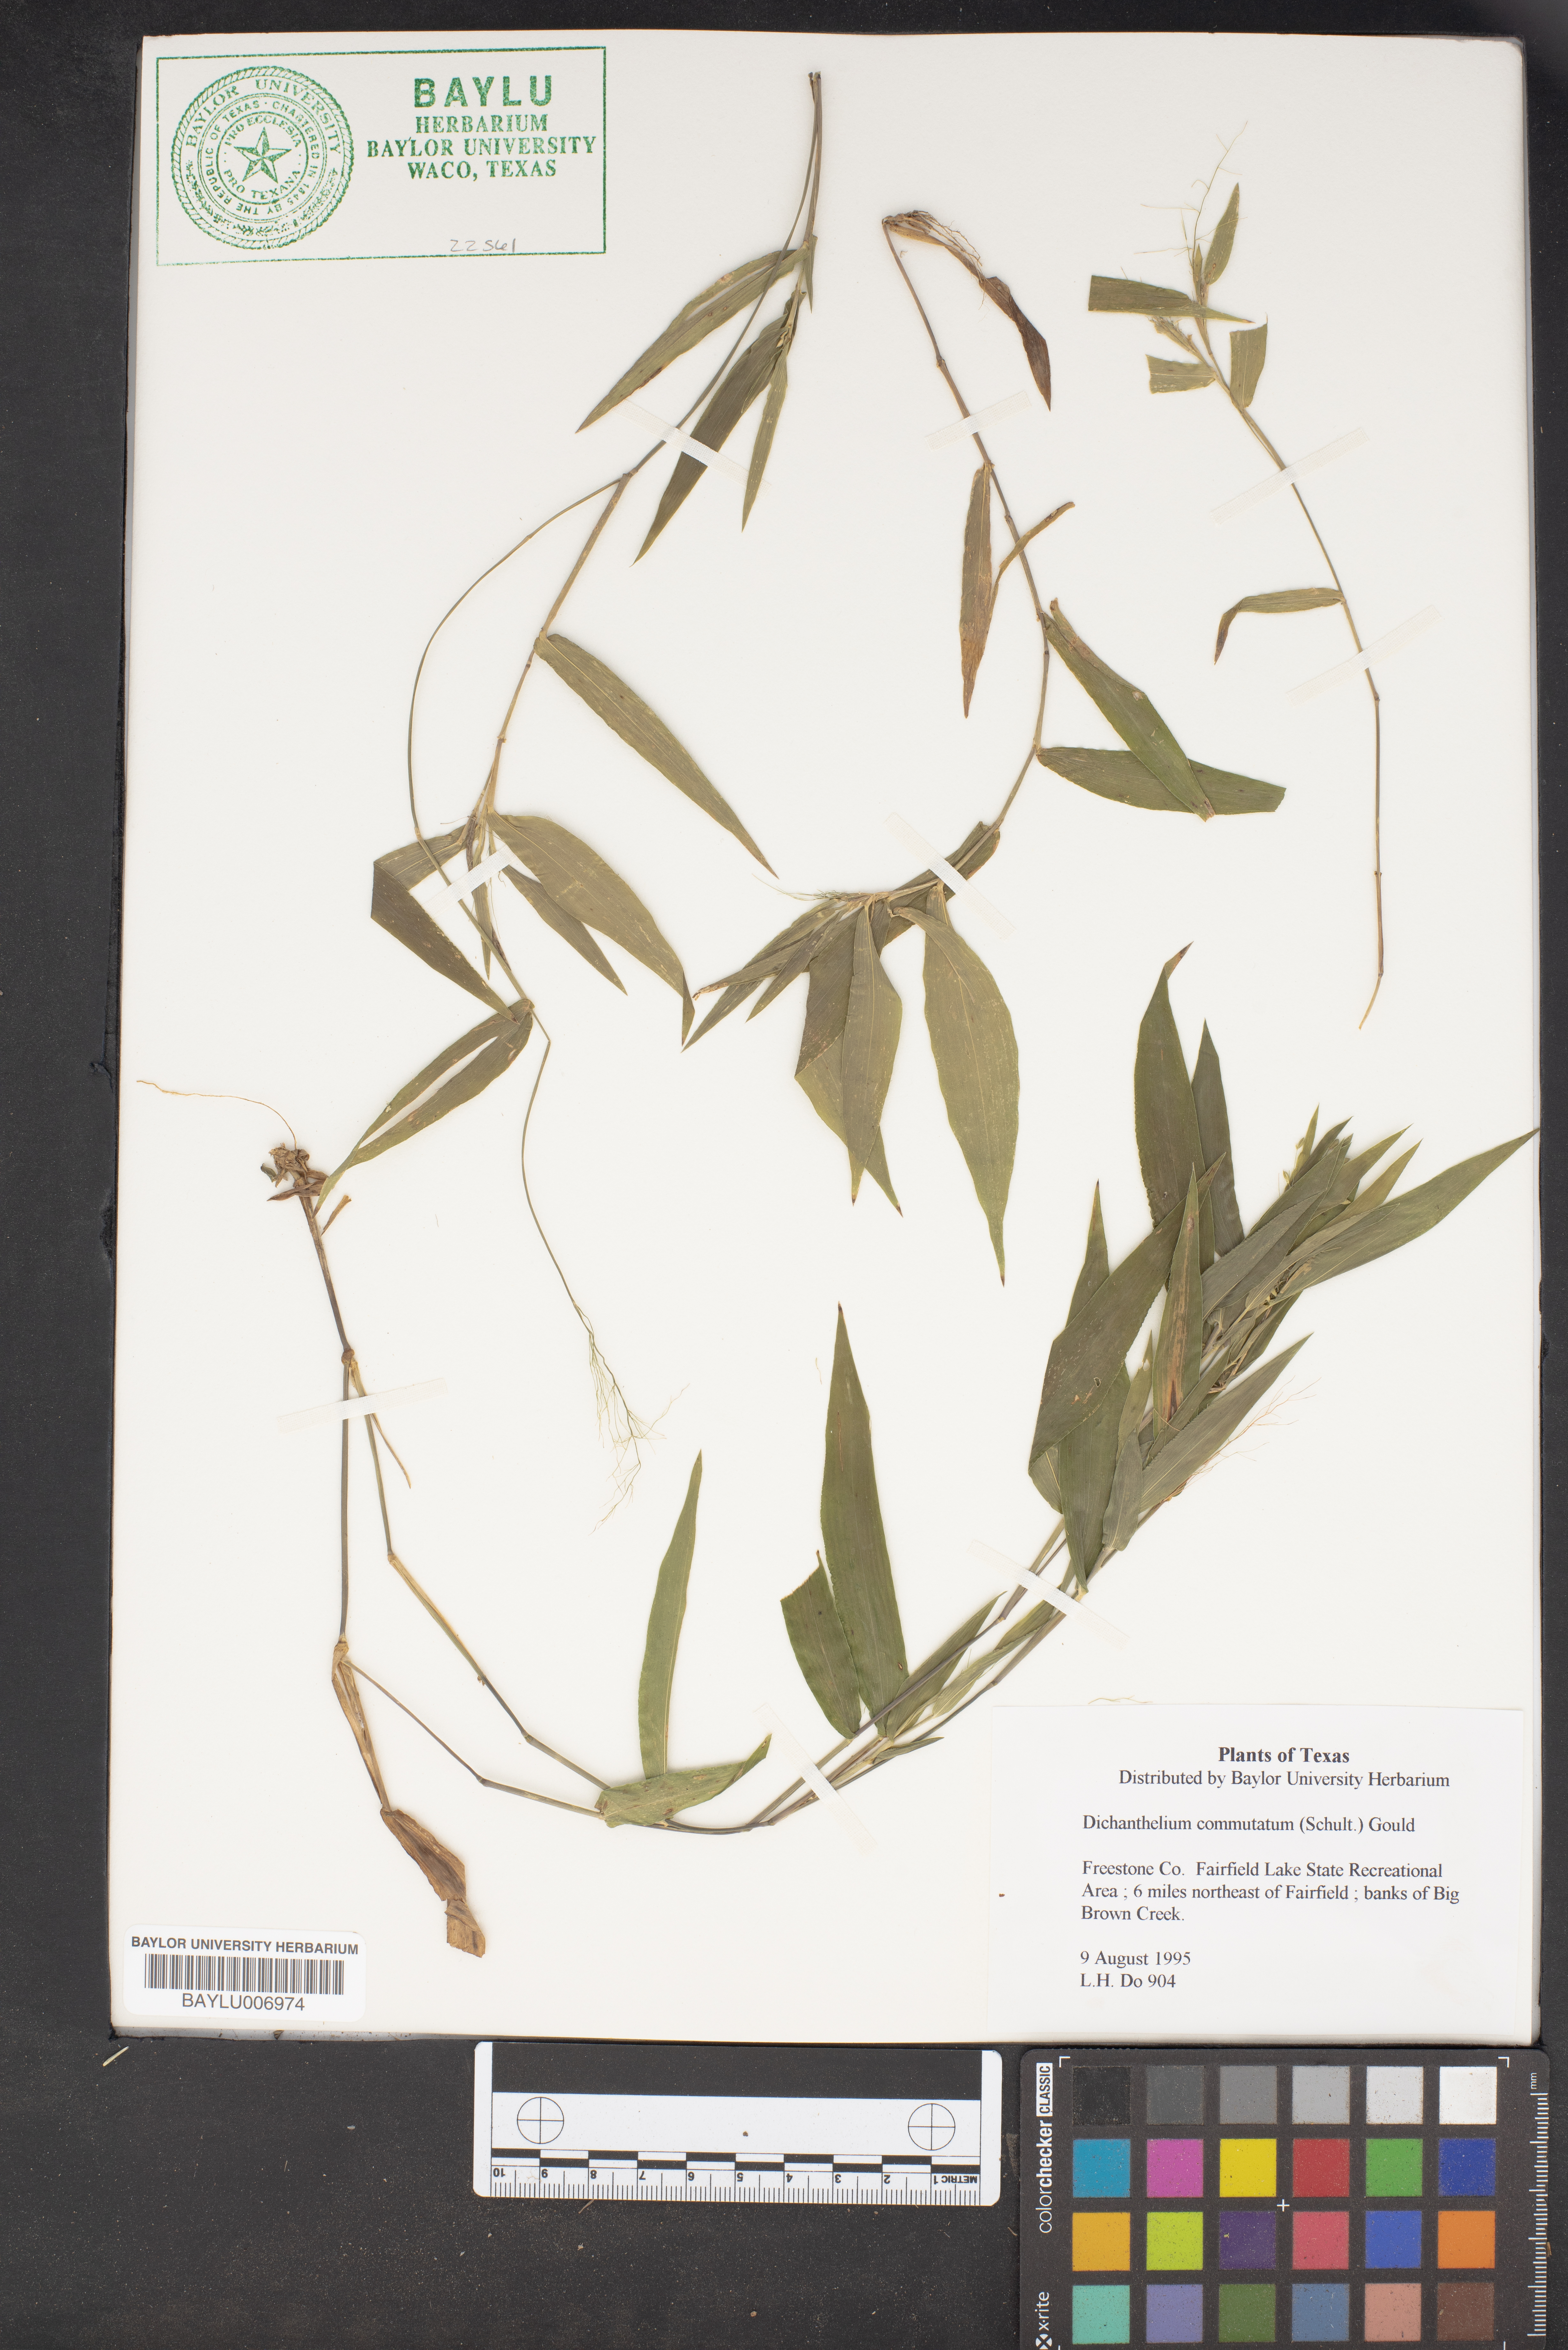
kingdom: Plantae
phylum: Tracheophyta
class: Liliopsida
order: Poales
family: Poaceae
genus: Dichanthelium
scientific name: Dichanthelium commutatum
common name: Variable witchgrass
